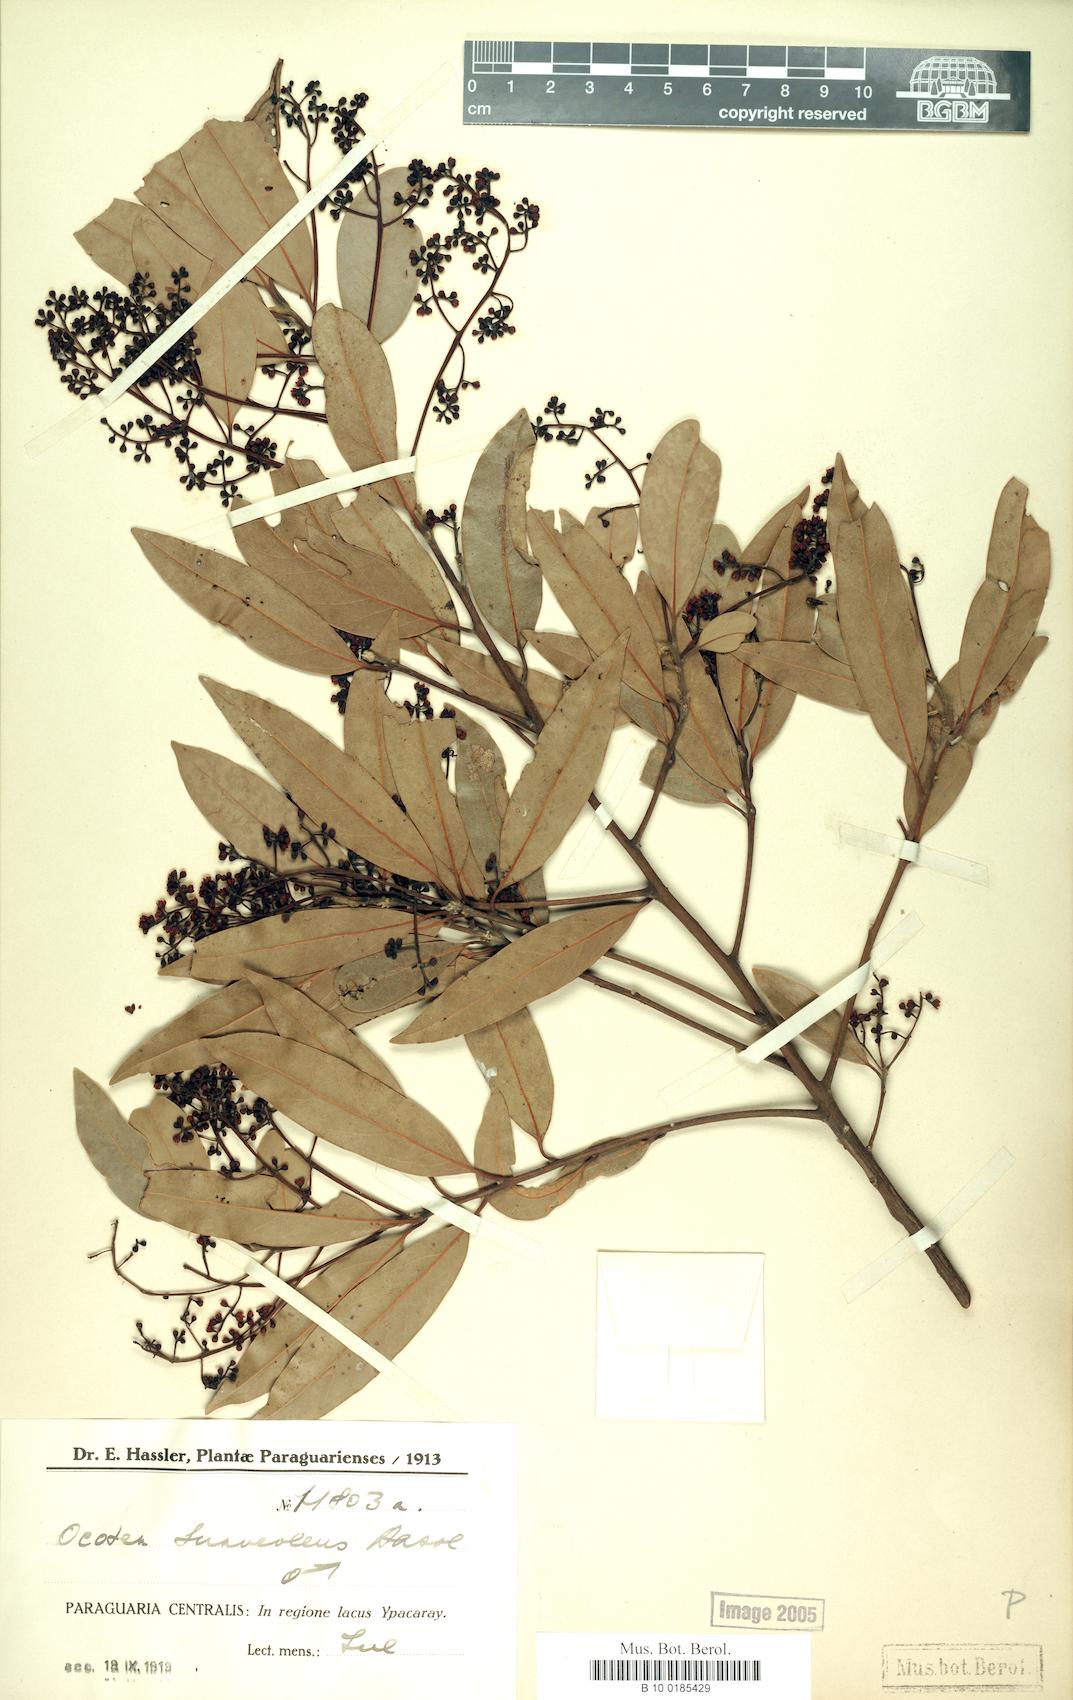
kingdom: Plantae
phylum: Tracheophyta
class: Magnoliopsida
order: Laurales
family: Lauraceae
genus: Ocotea
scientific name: Ocotea diospyrifolia
